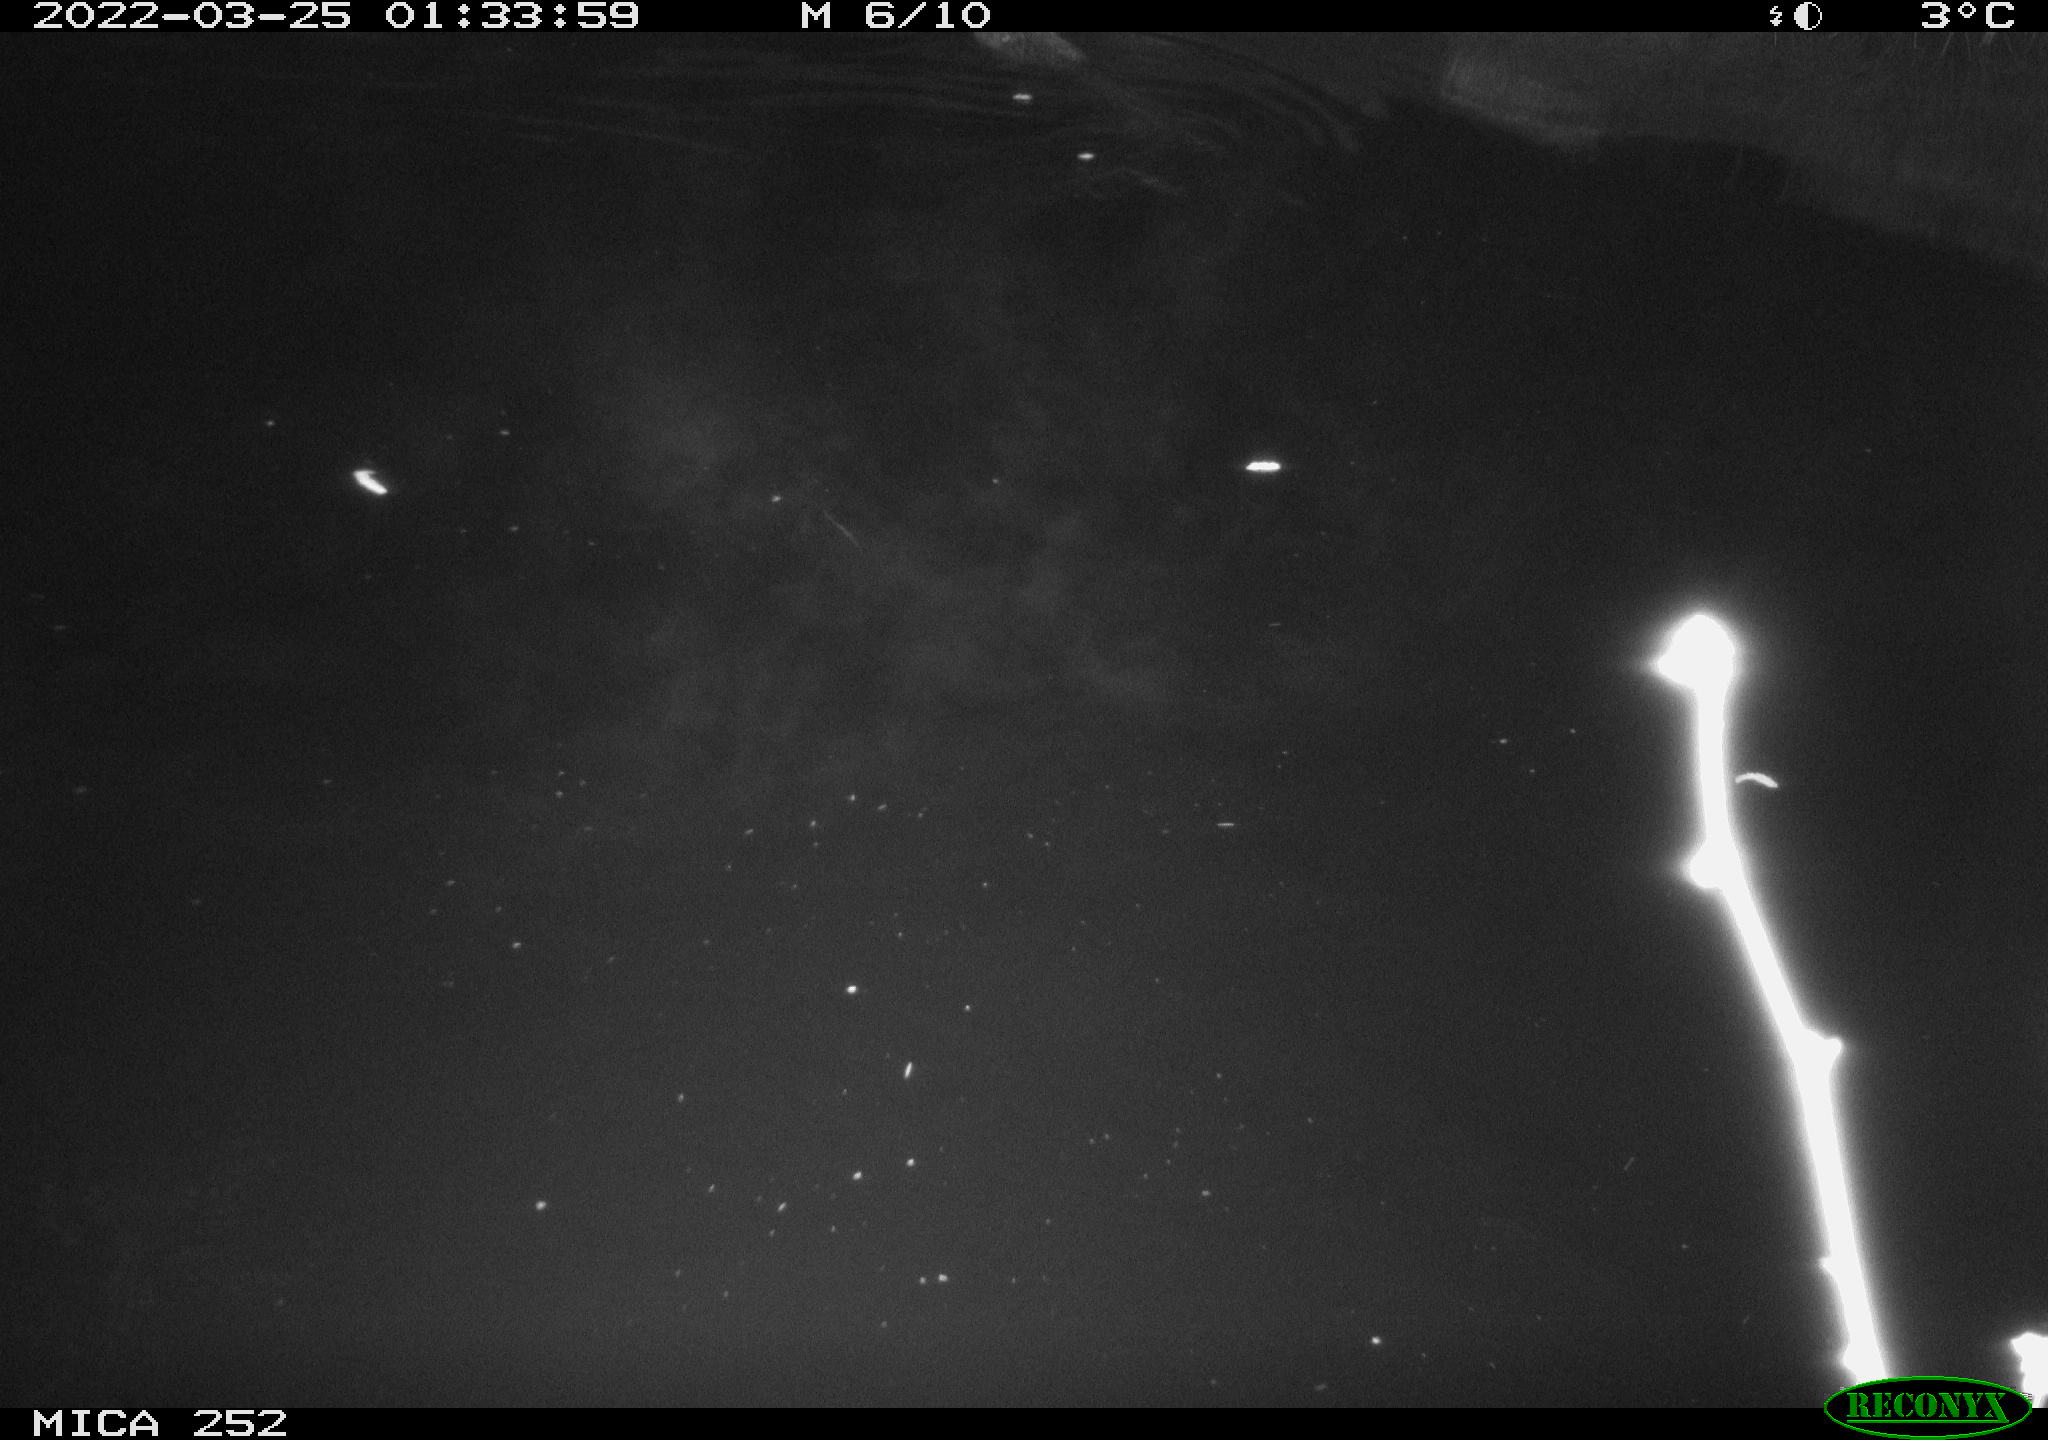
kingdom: Animalia
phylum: Chordata
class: Mammalia
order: Rodentia
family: Castoridae
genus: Castor
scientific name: Castor fiber
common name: Eurasian beaver
